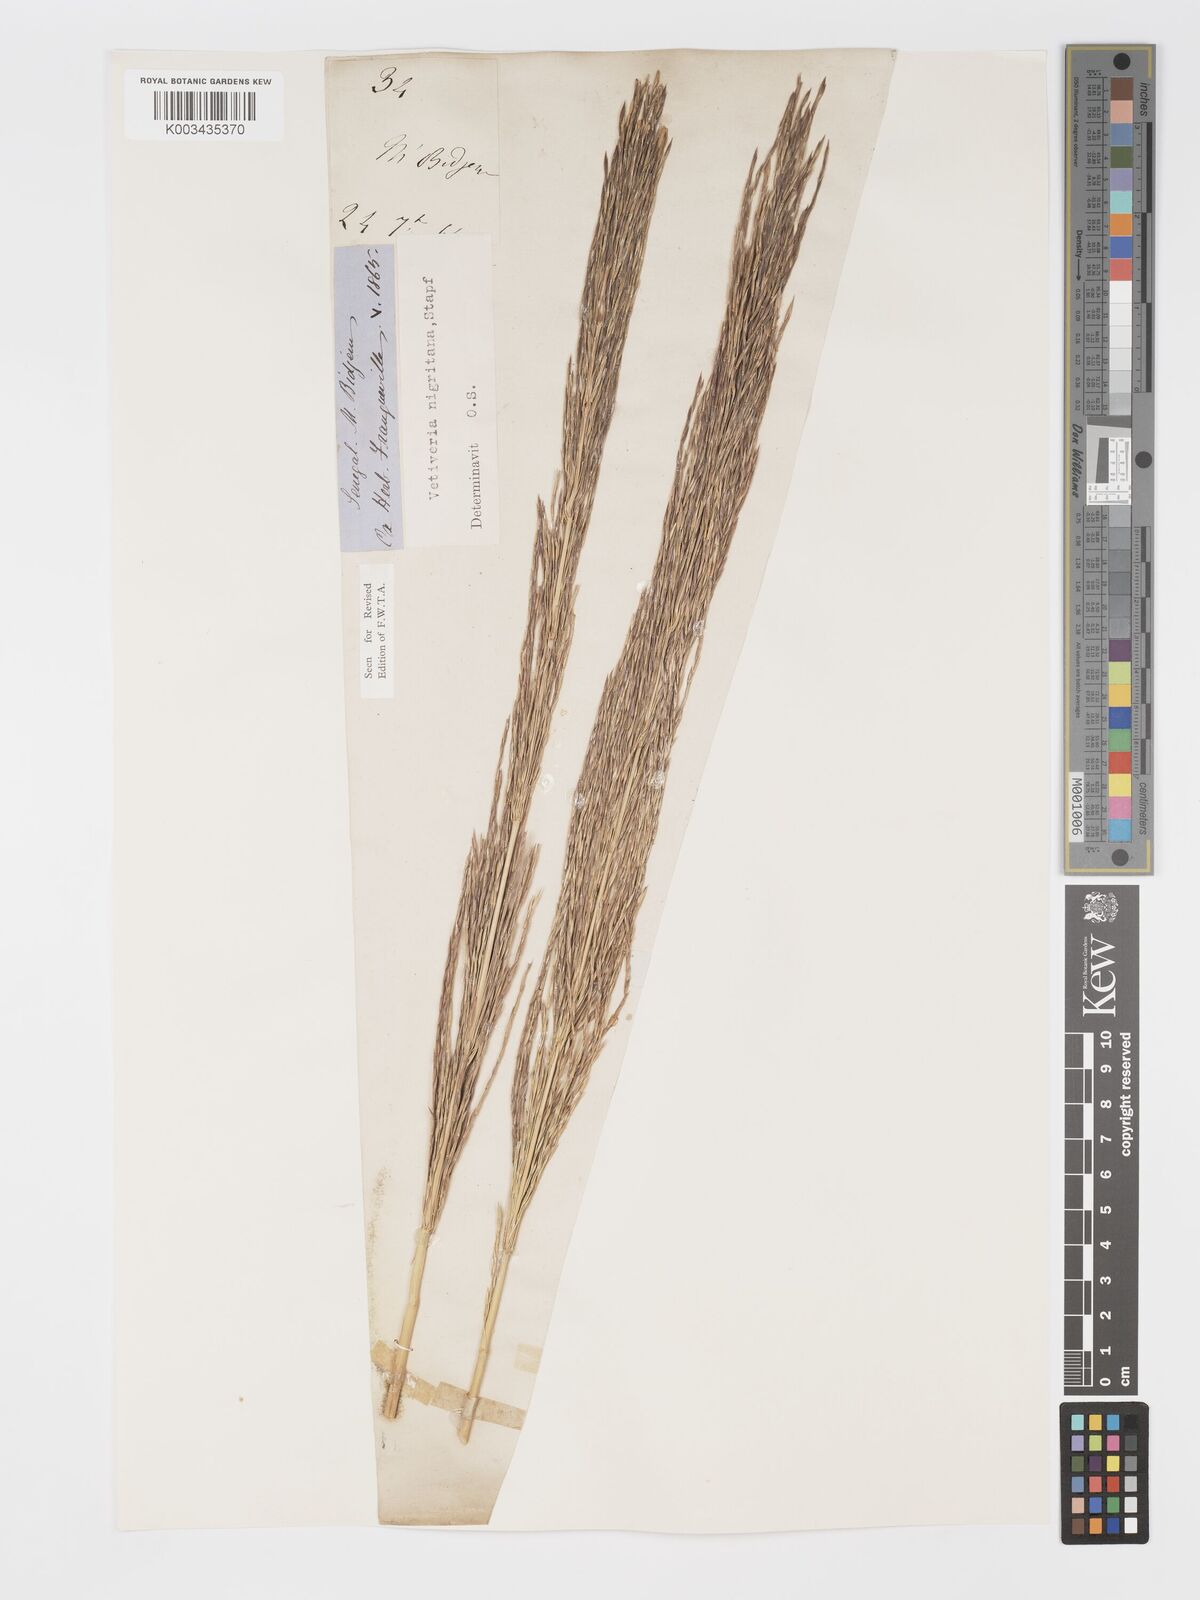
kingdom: Plantae
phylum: Tracheophyta
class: Liliopsida
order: Poales
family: Poaceae
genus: Chrysopogon
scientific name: Chrysopogon nigritanus
